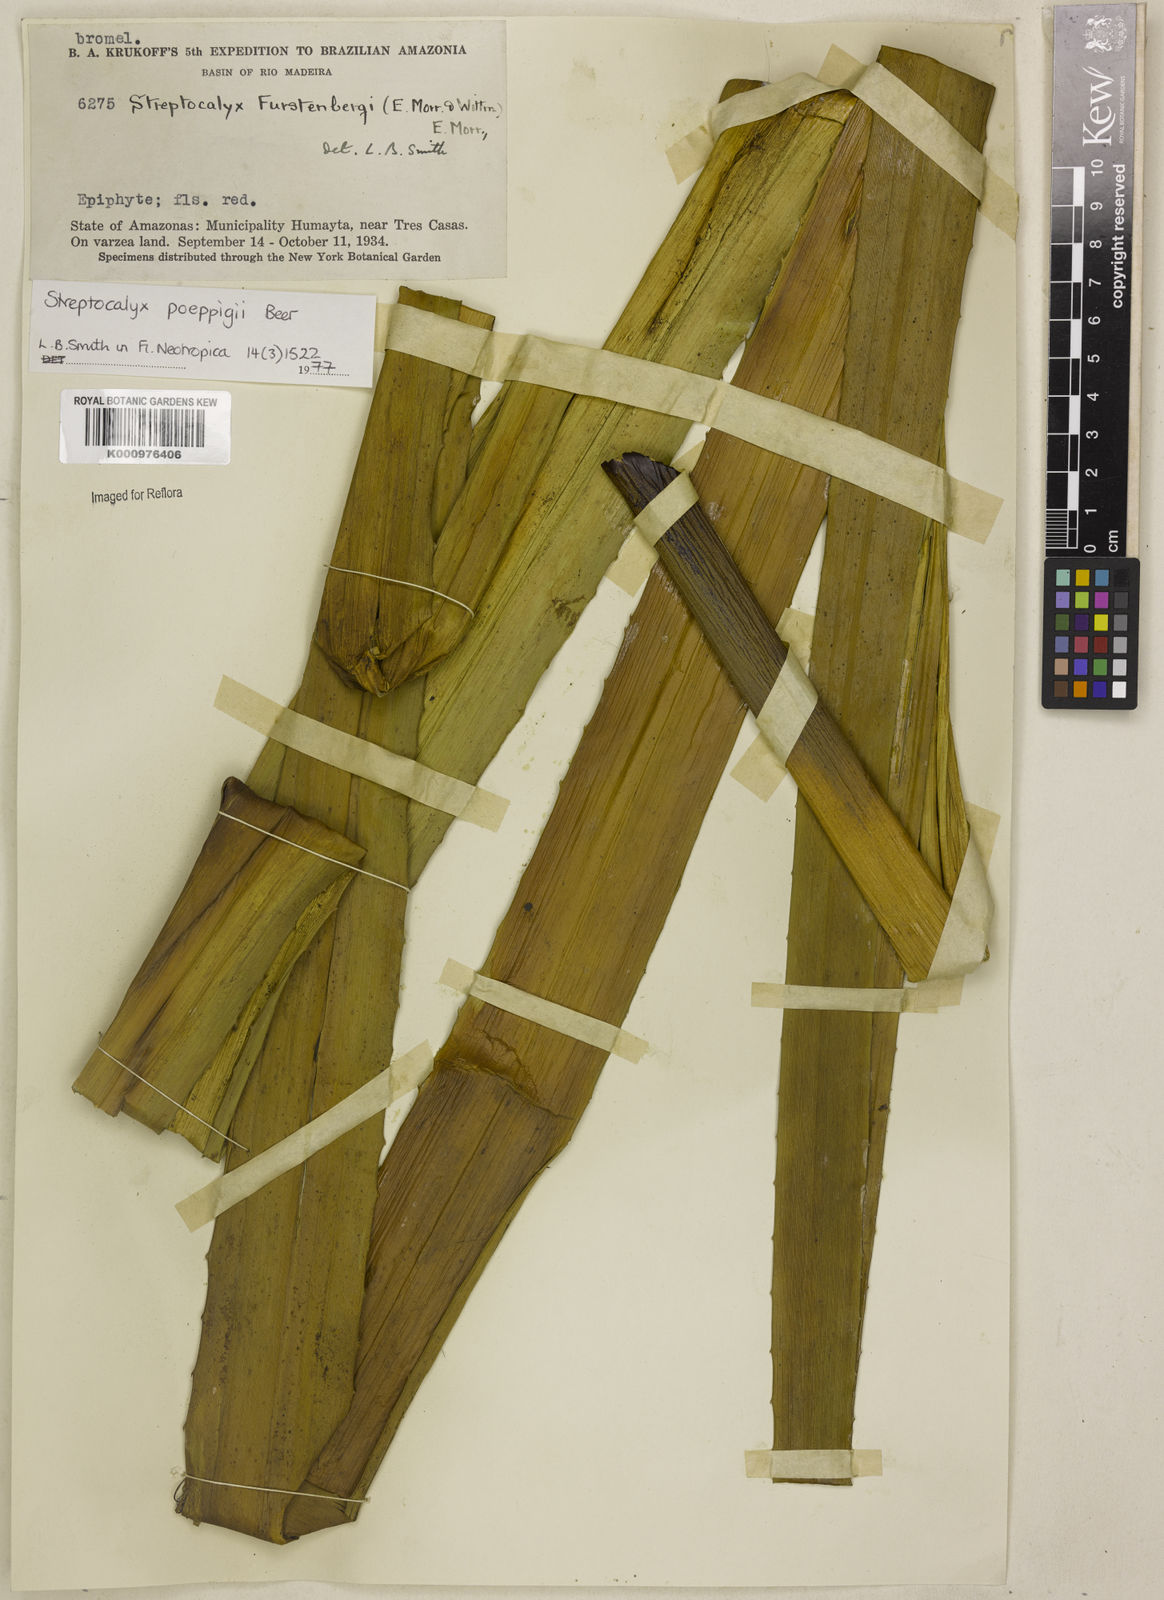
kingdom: Plantae
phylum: Tracheophyta
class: Liliopsida
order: Poales
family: Bromeliaceae
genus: Aechmea
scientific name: Aechmea vallerandii
